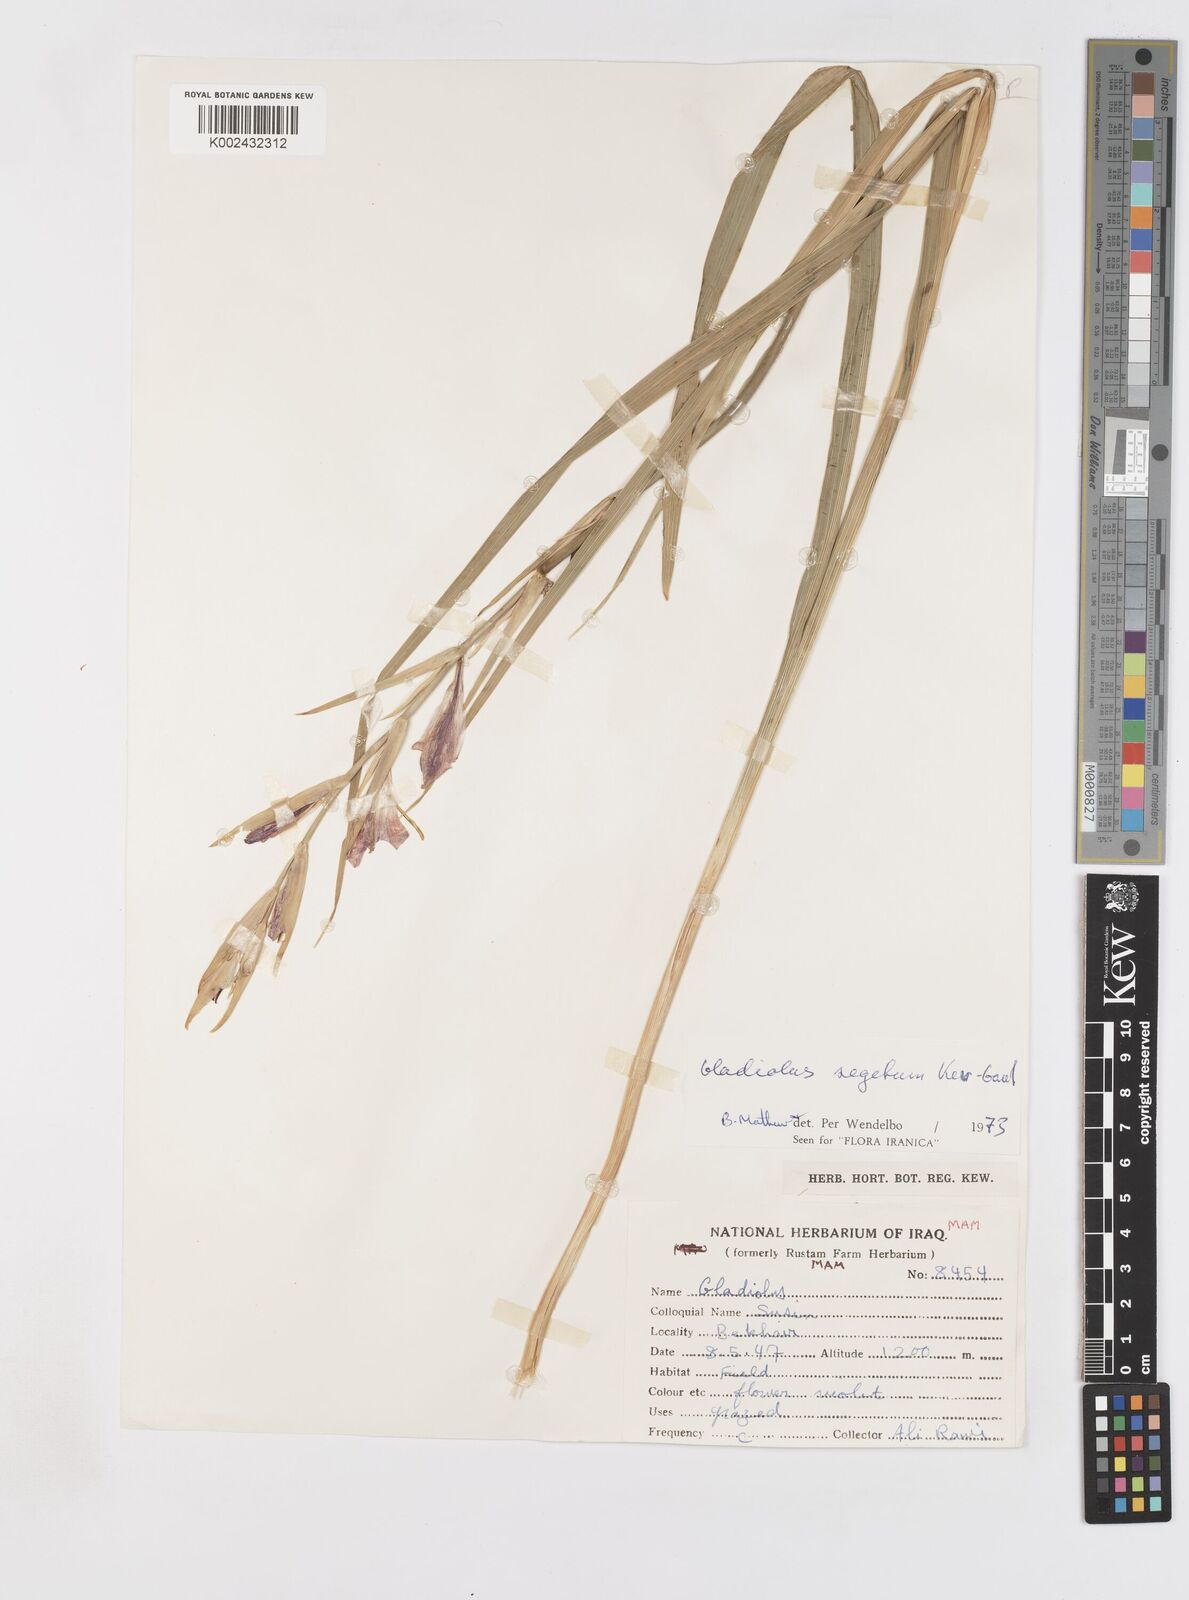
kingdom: Plantae
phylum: Tracheophyta
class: Liliopsida
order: Asparagales
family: Iridaceae
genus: Gladiolus
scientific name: Gladiolus italicus
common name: Field gladiolus
